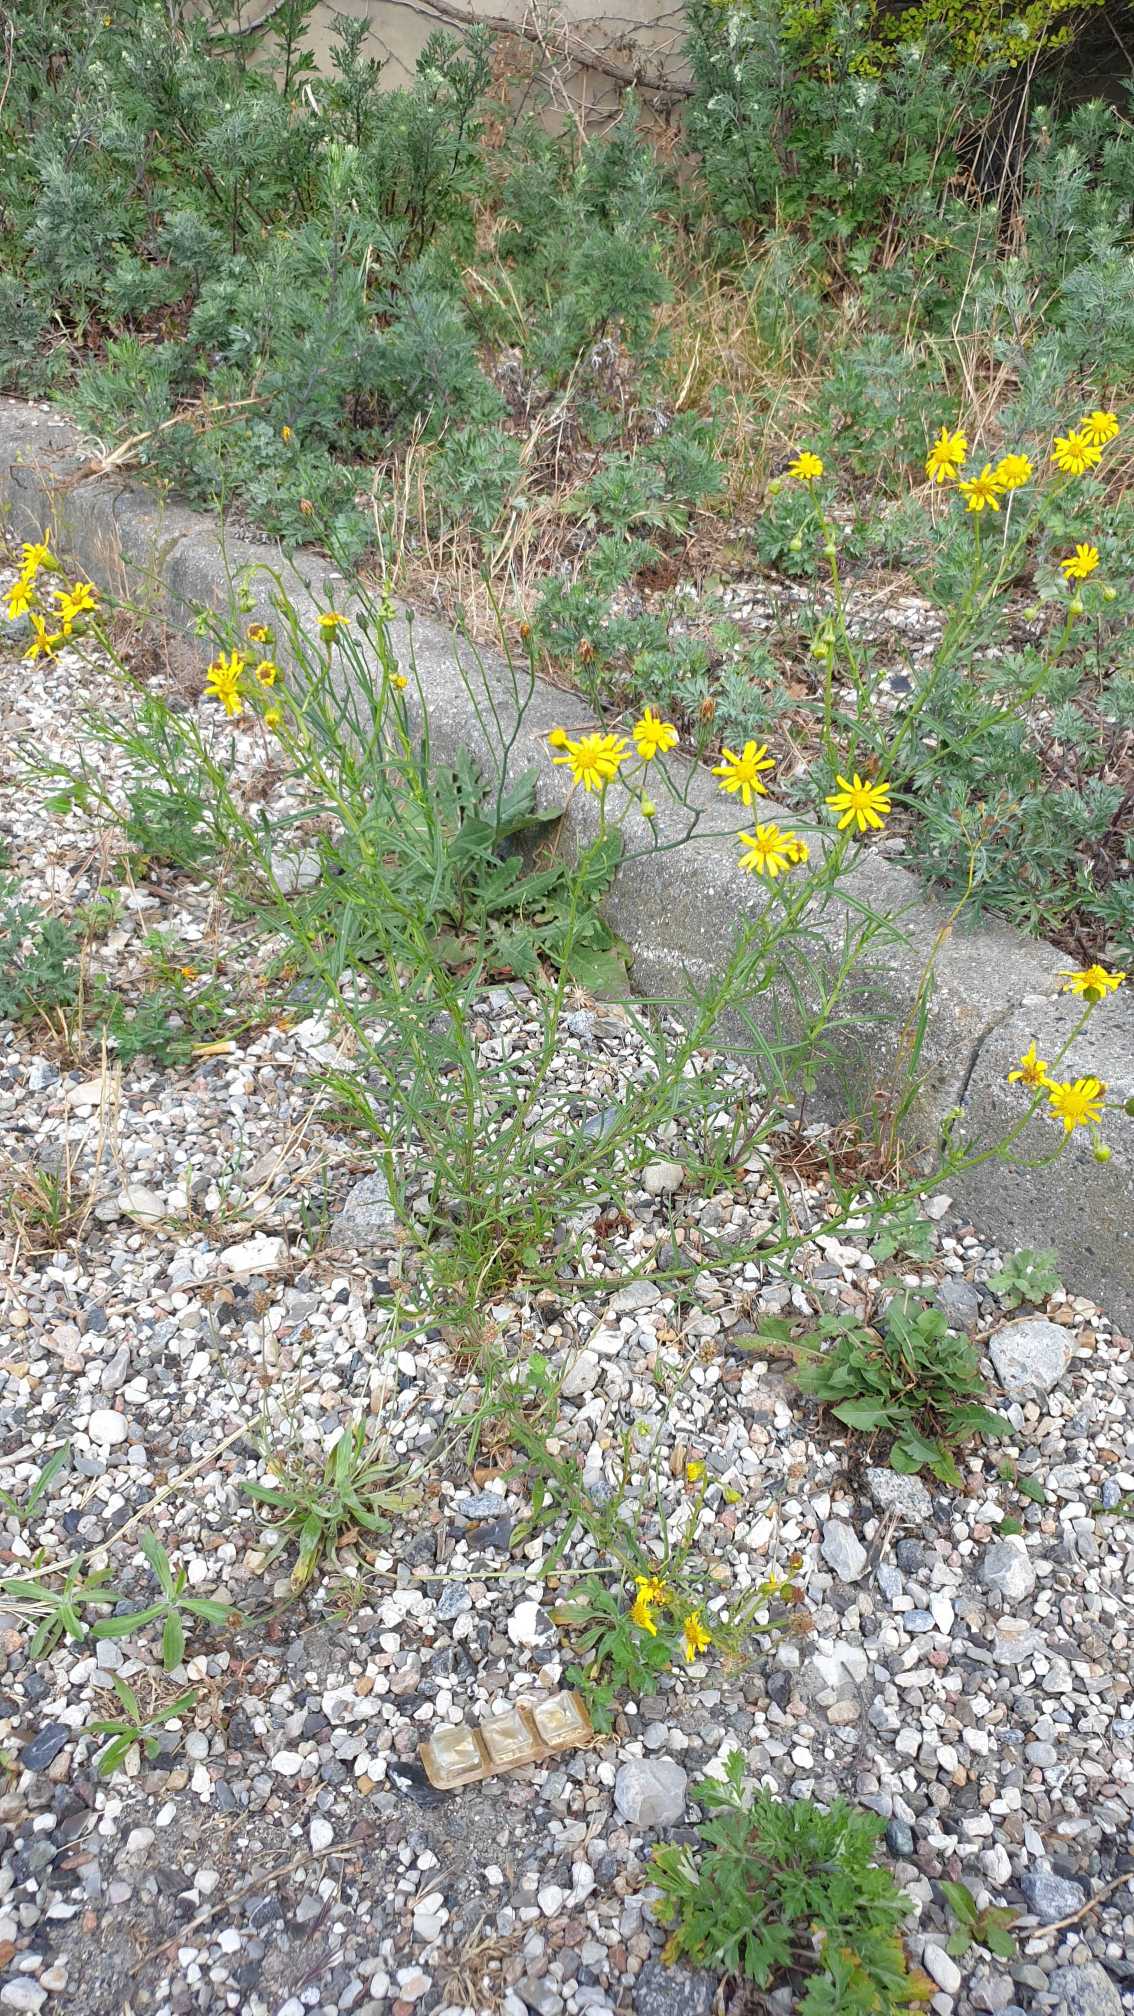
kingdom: Plantae
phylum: Tracheophyta
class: Magnoliopsida
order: Asterales
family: Asteraceae
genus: Senecio
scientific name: Senecio inaequidens
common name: Smalbladet brandbæger
